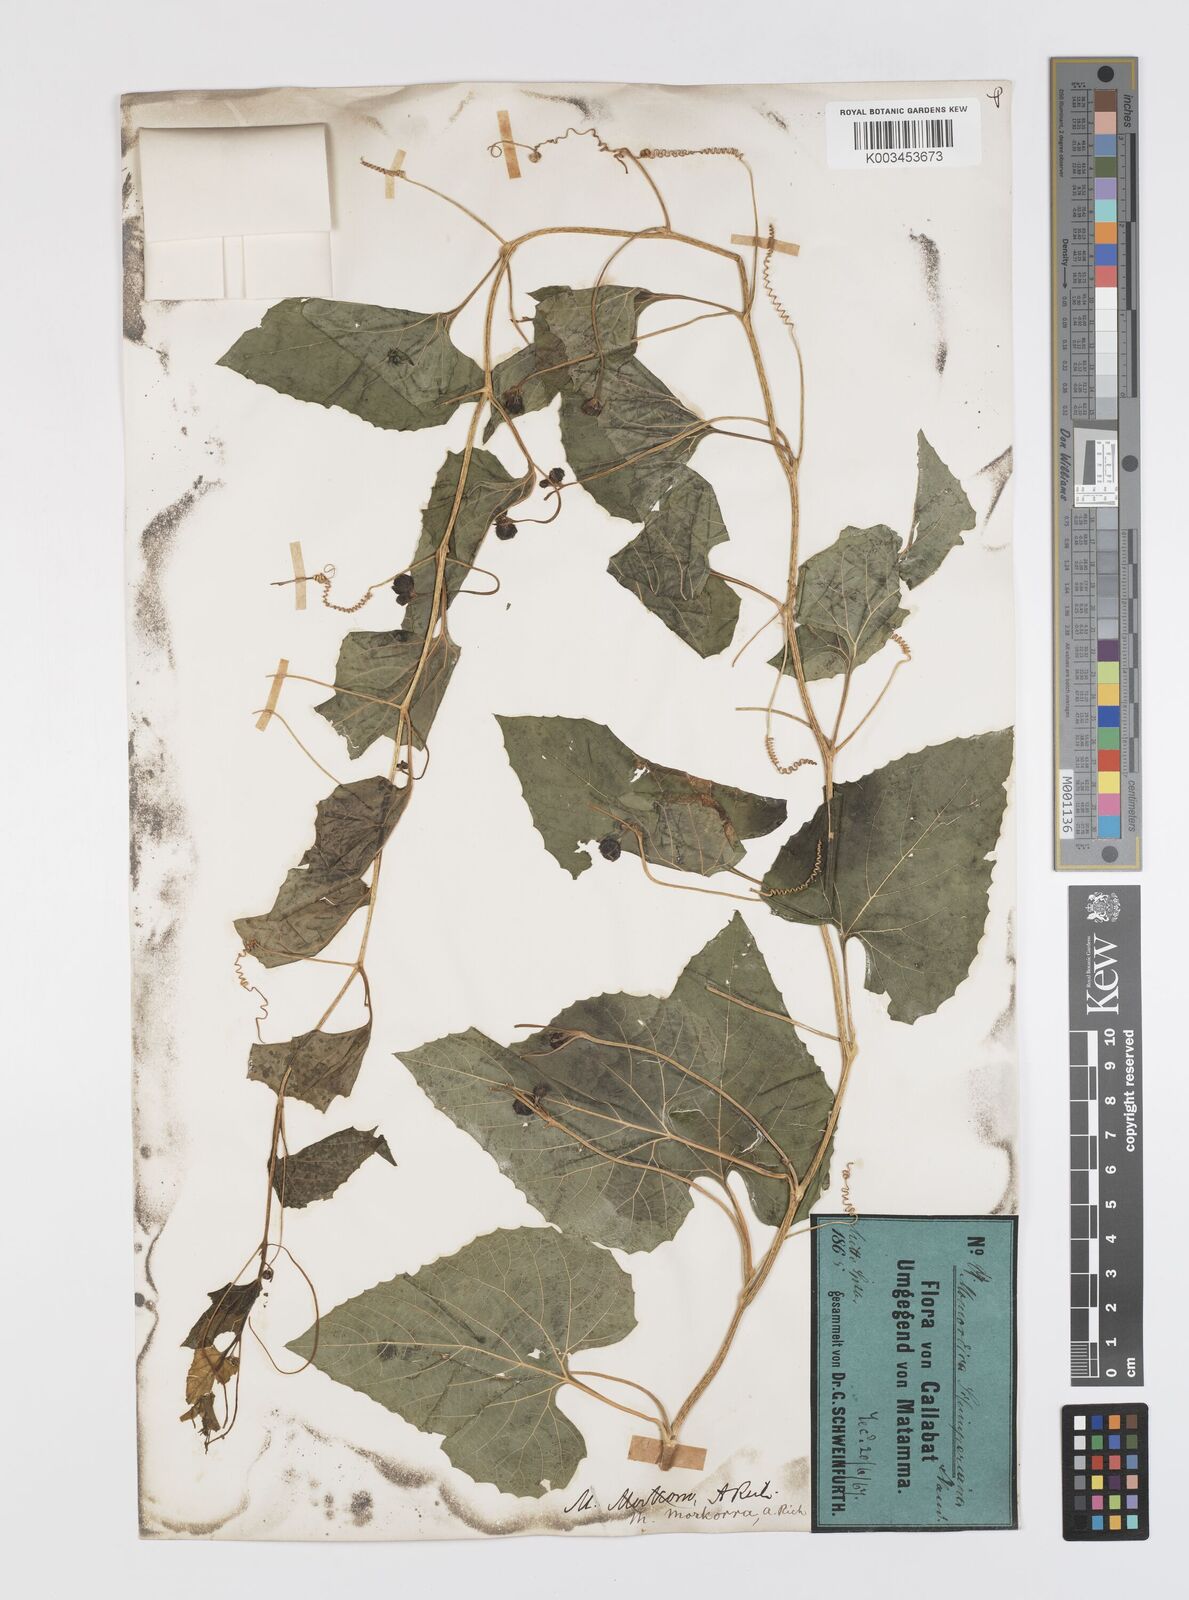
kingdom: Plantae
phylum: Tracheophyta
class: Magnoliopsida
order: Cucurbitales
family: Cucurbitaceae
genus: Momordica
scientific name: Momordica foetida
